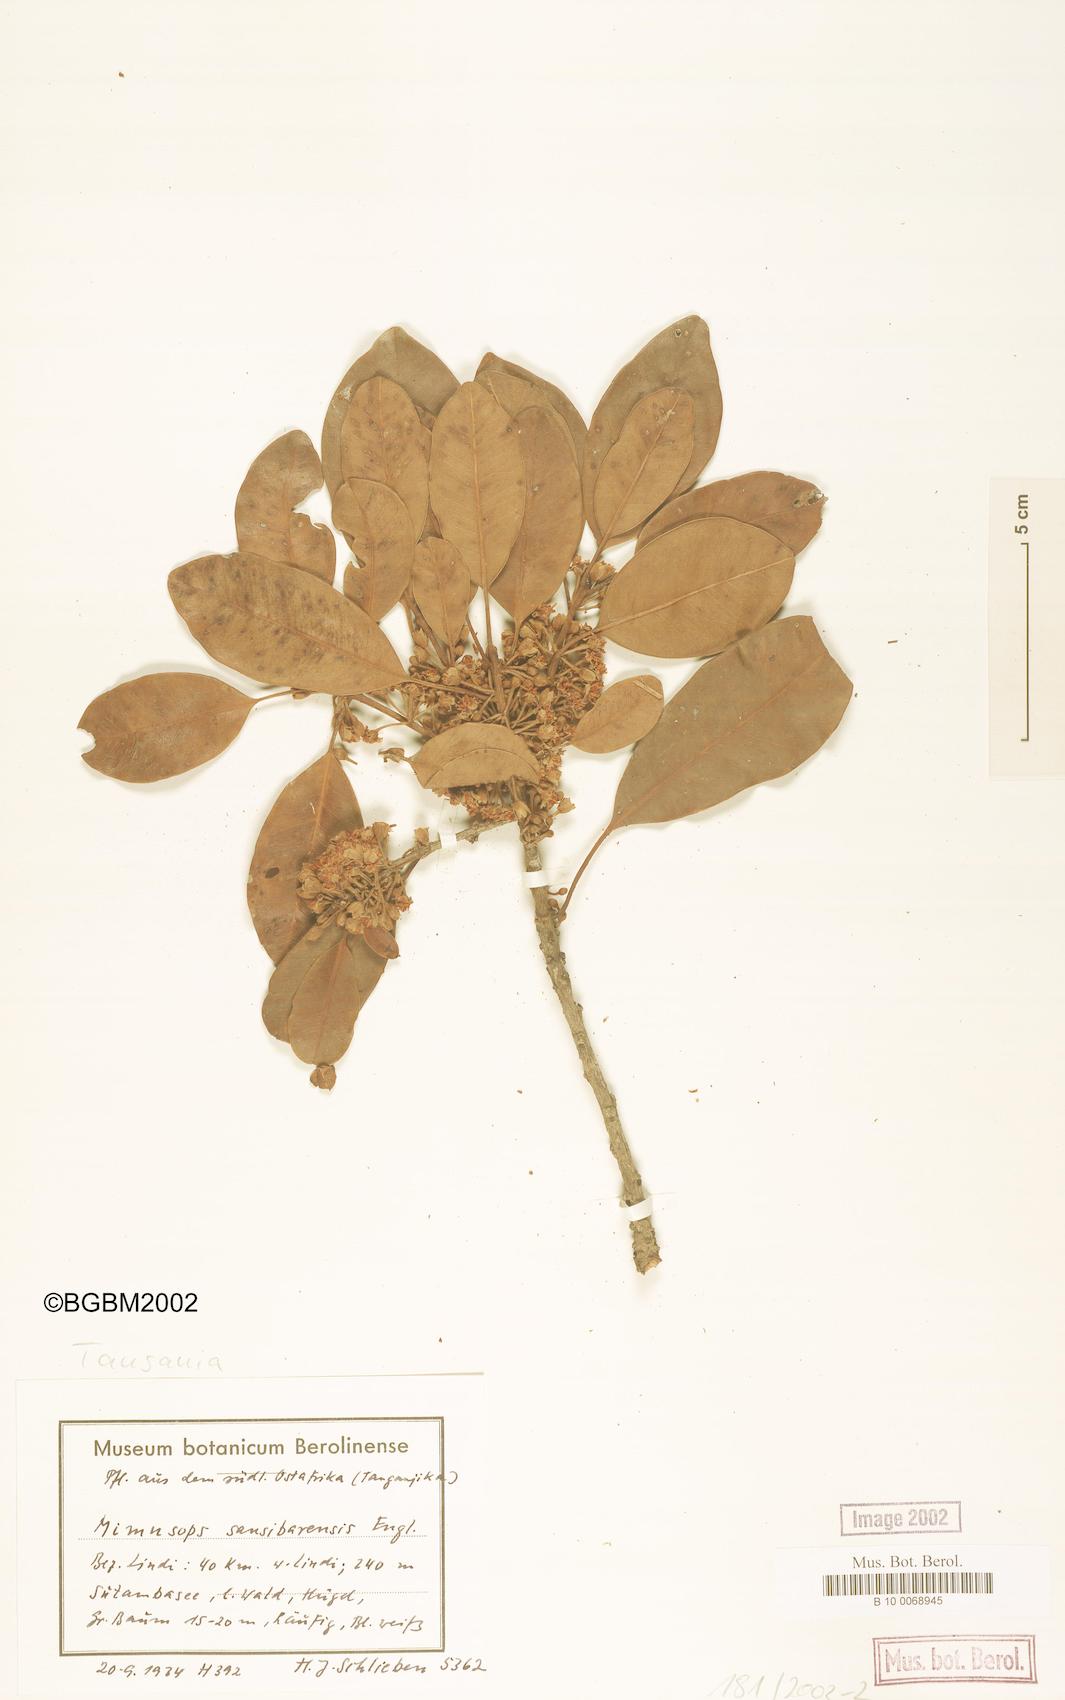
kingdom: Plantae
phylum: Tracheophyta
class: Magnoliopsida
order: Ericales
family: Sapotaceae
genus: Manilkara
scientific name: Manilkara sansibarensis
